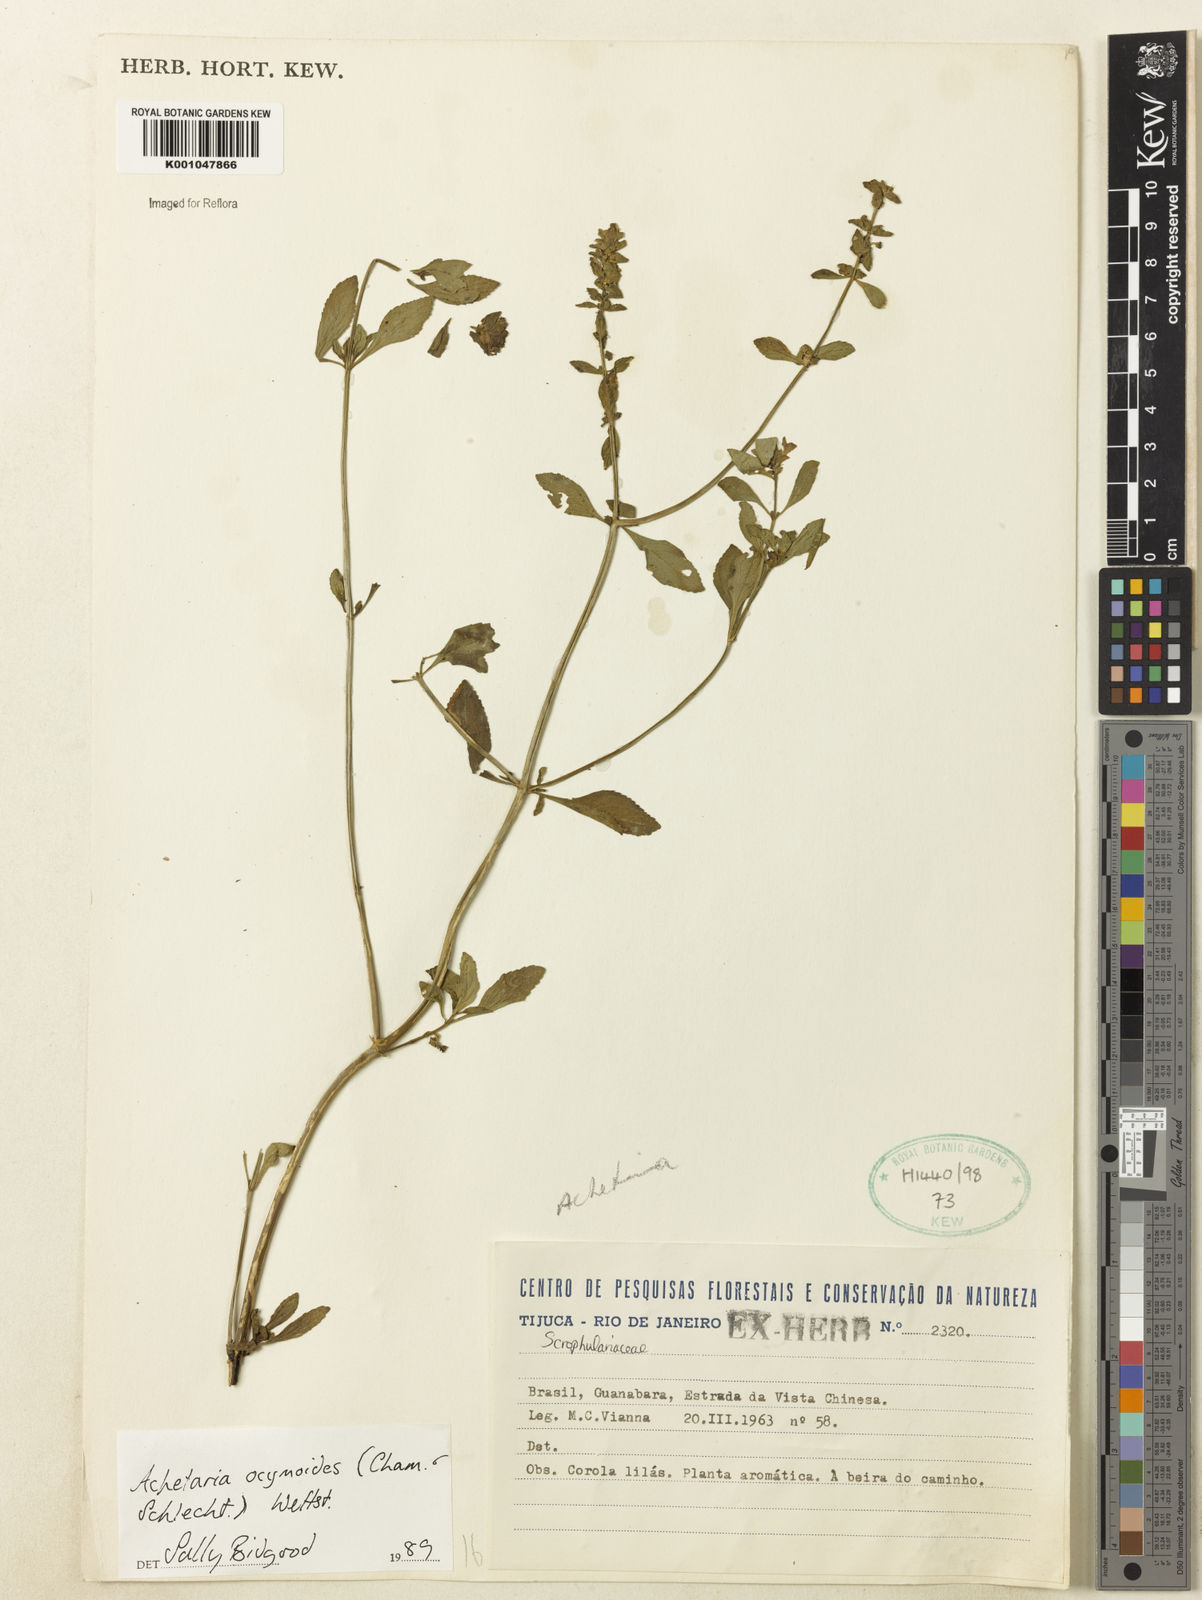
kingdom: Plantae
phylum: Tracheophyta
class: Magnoliopsida
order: Lamiales
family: Plantaginaceae
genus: Matourea
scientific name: Matourea ocymoides
